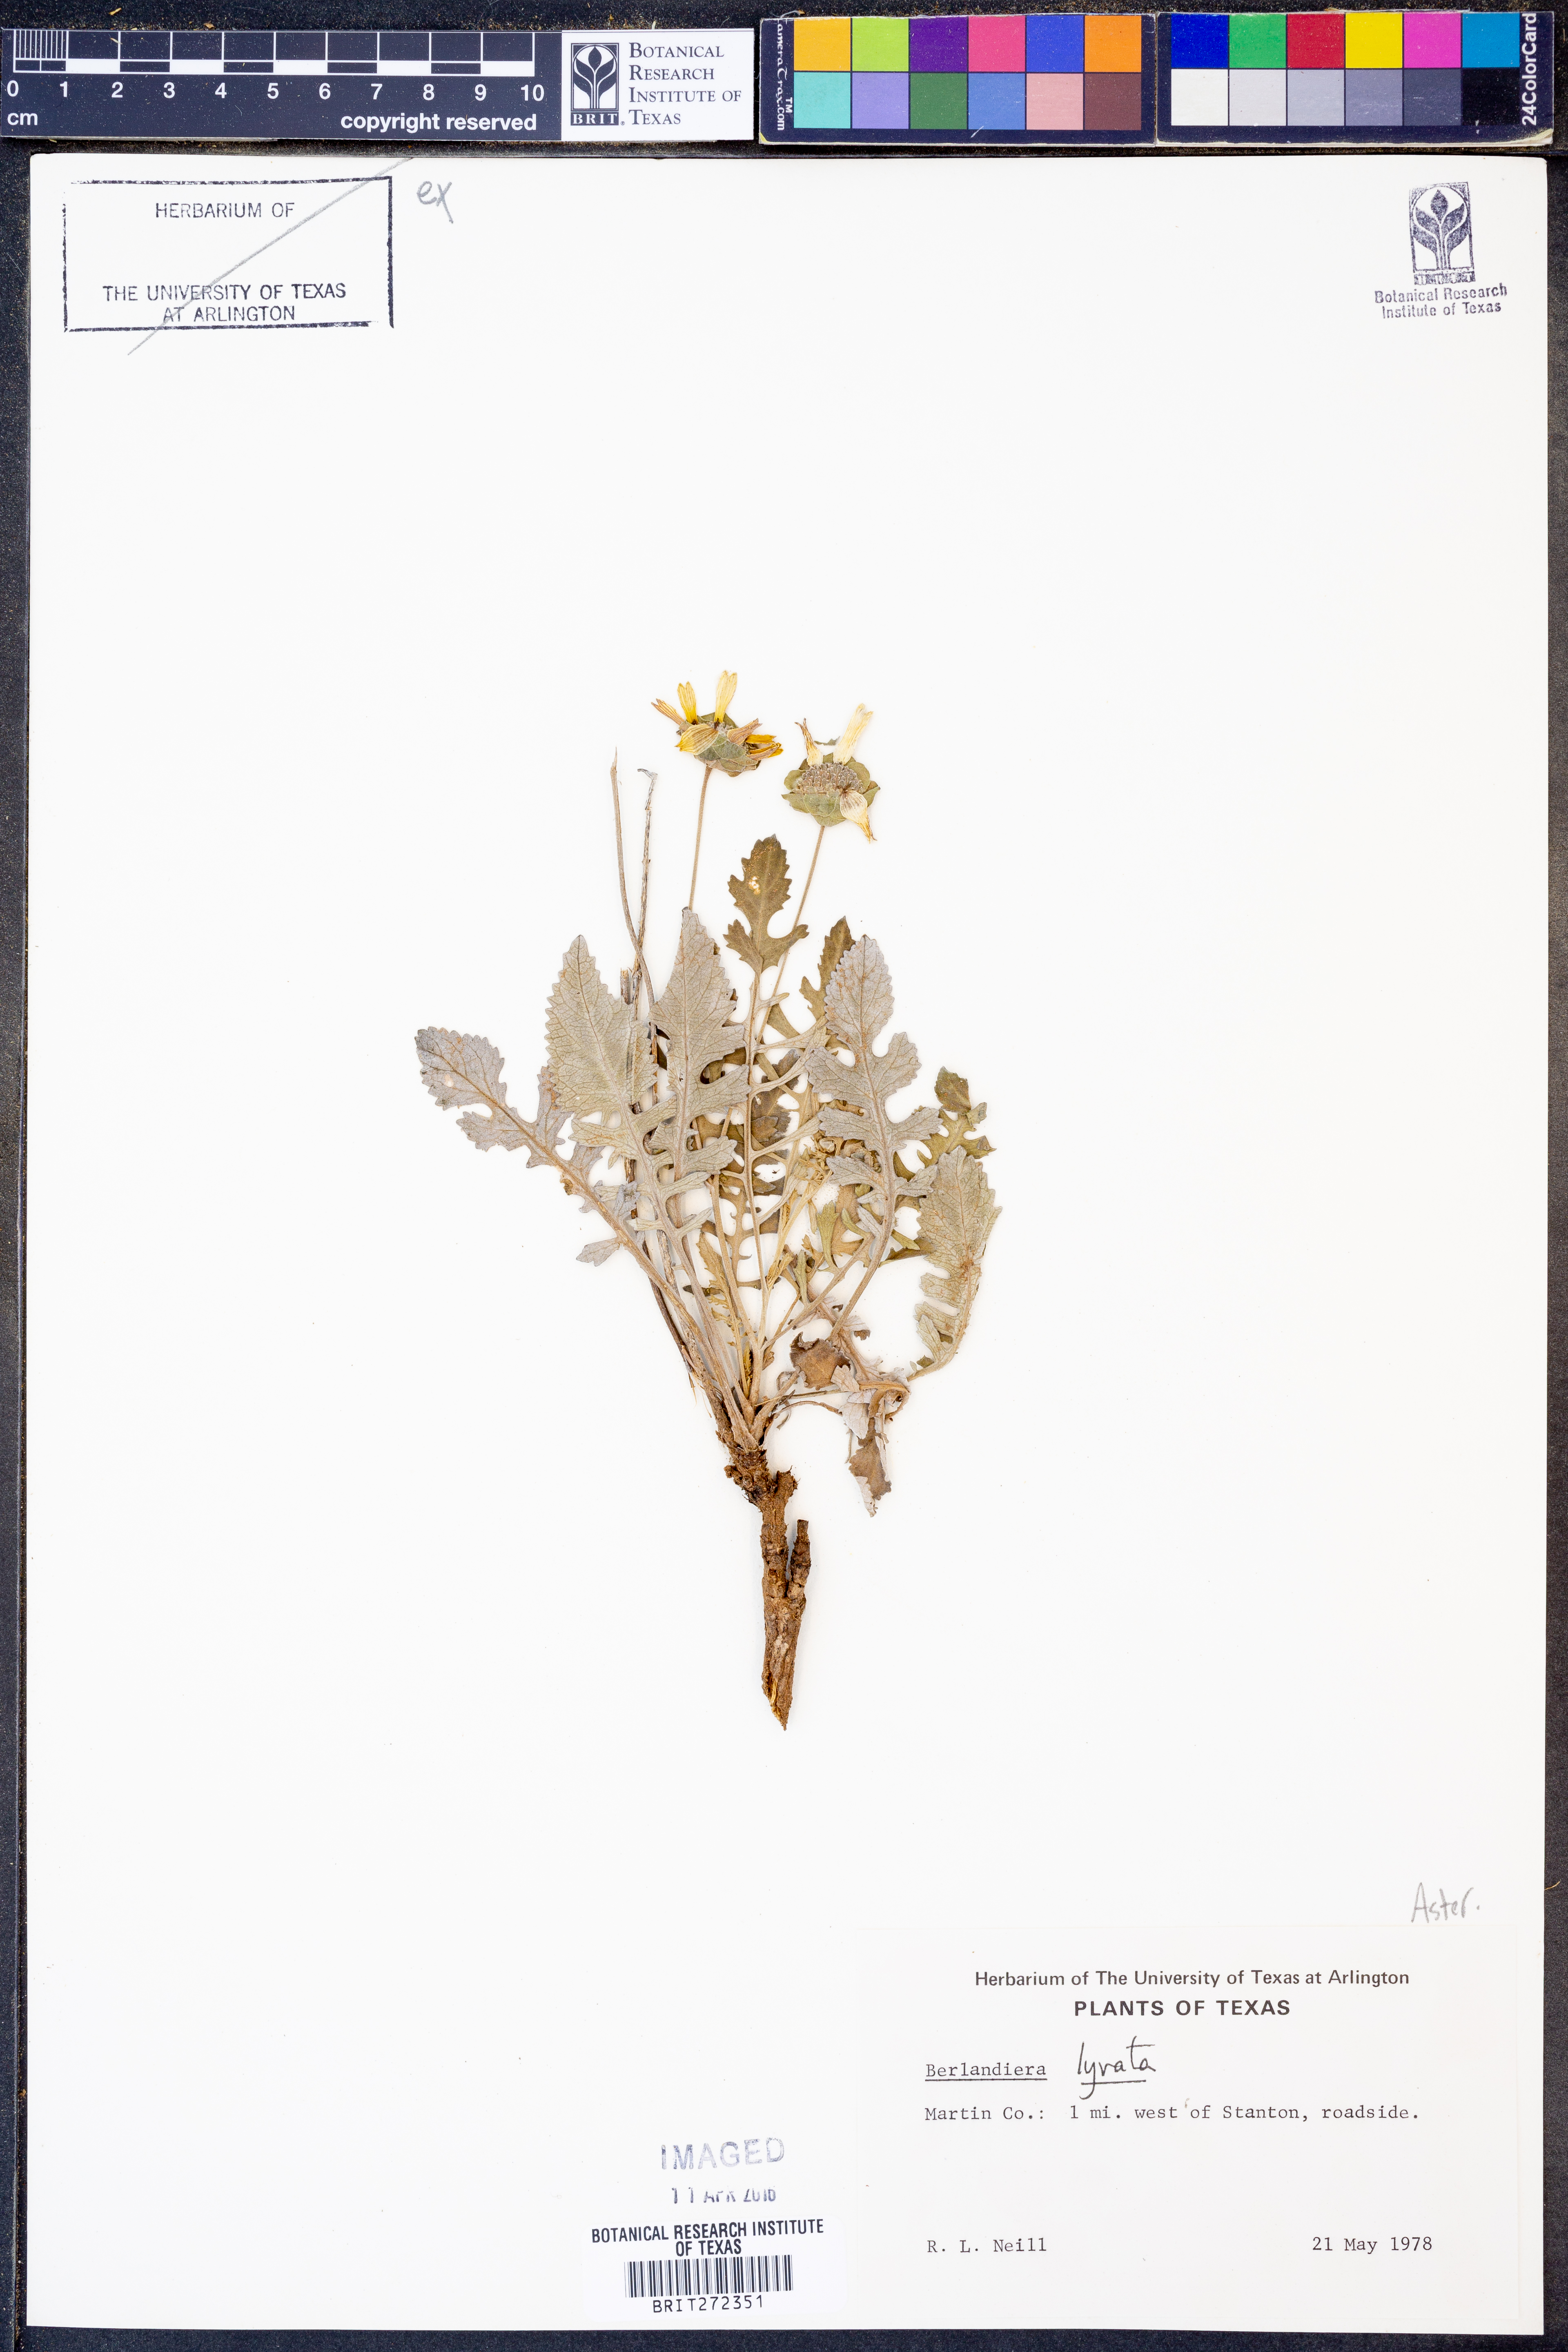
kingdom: Plantae
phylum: Tracheophyta
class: Magnoliopsida
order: Asterales
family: Asteraceae
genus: Berlandiera
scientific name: Berlandiera lyrata
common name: Chocolate-flower
